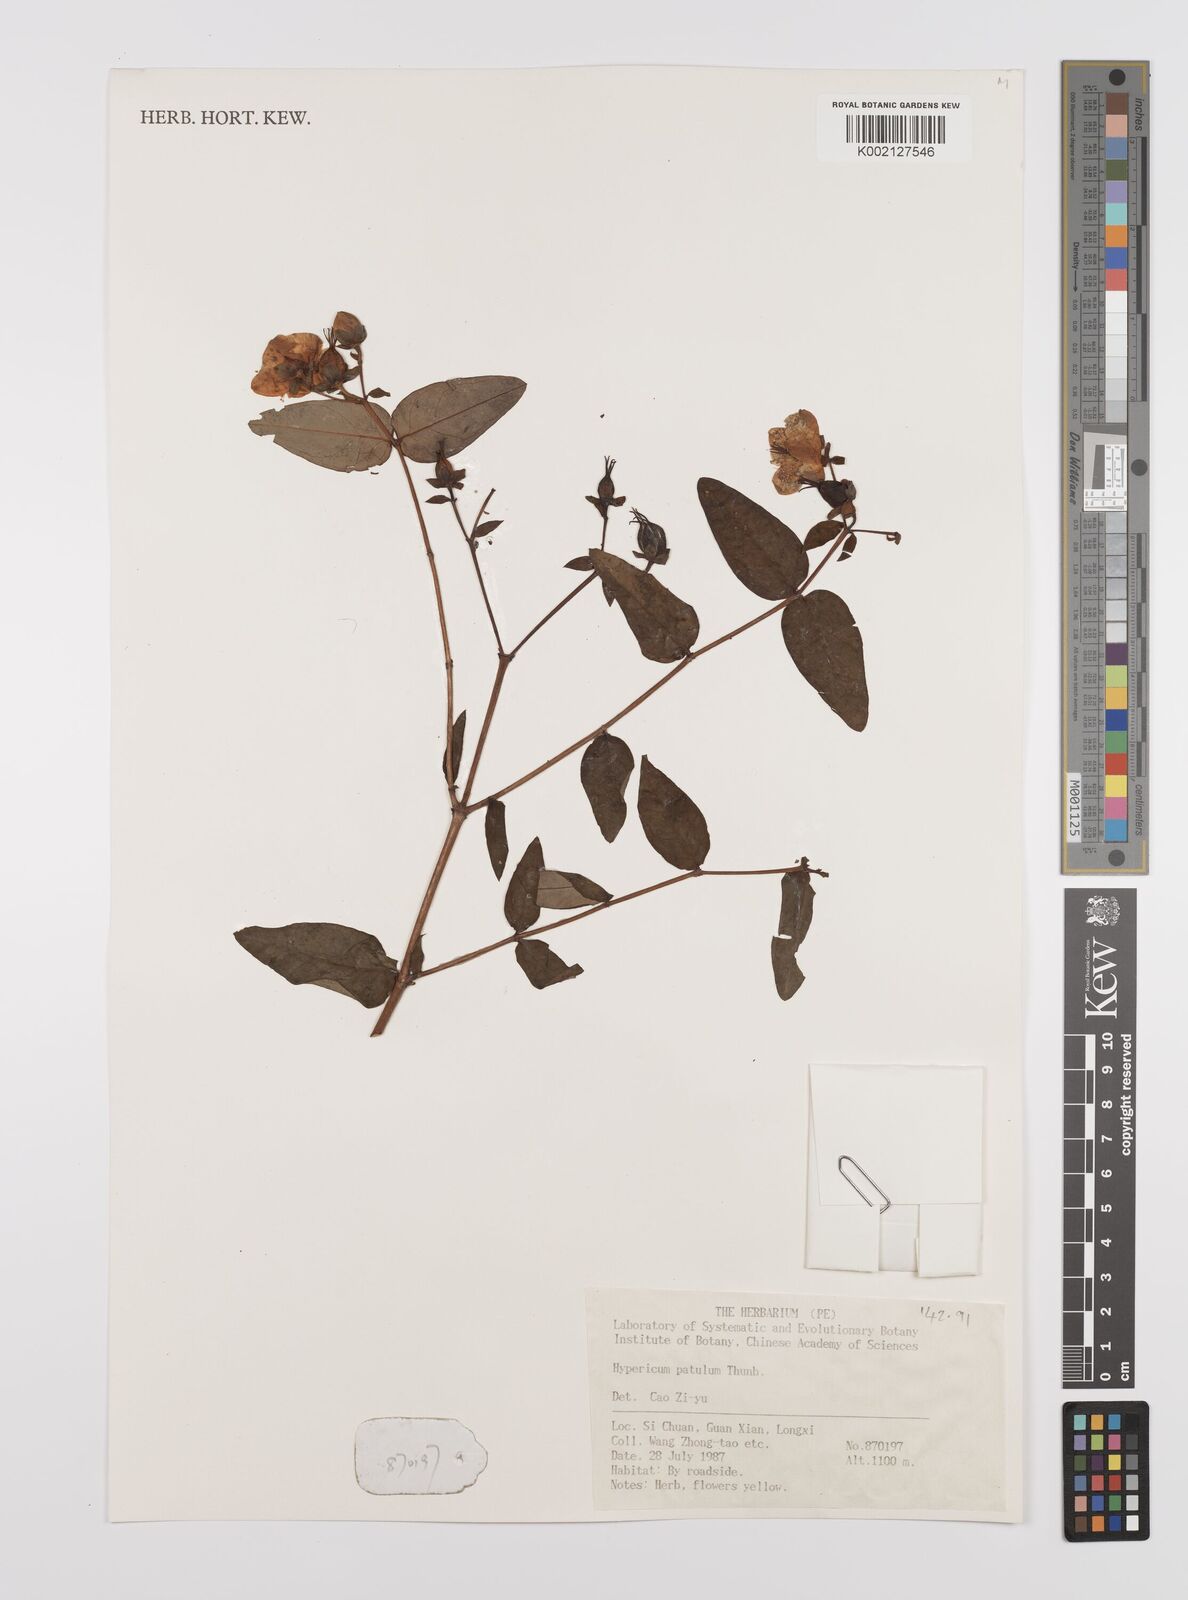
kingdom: Plantae
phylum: Tracheophyta
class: Magnoliopsida
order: Malpighiales
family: Hypericaceae
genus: Hypericum
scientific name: Hypericum patulum
